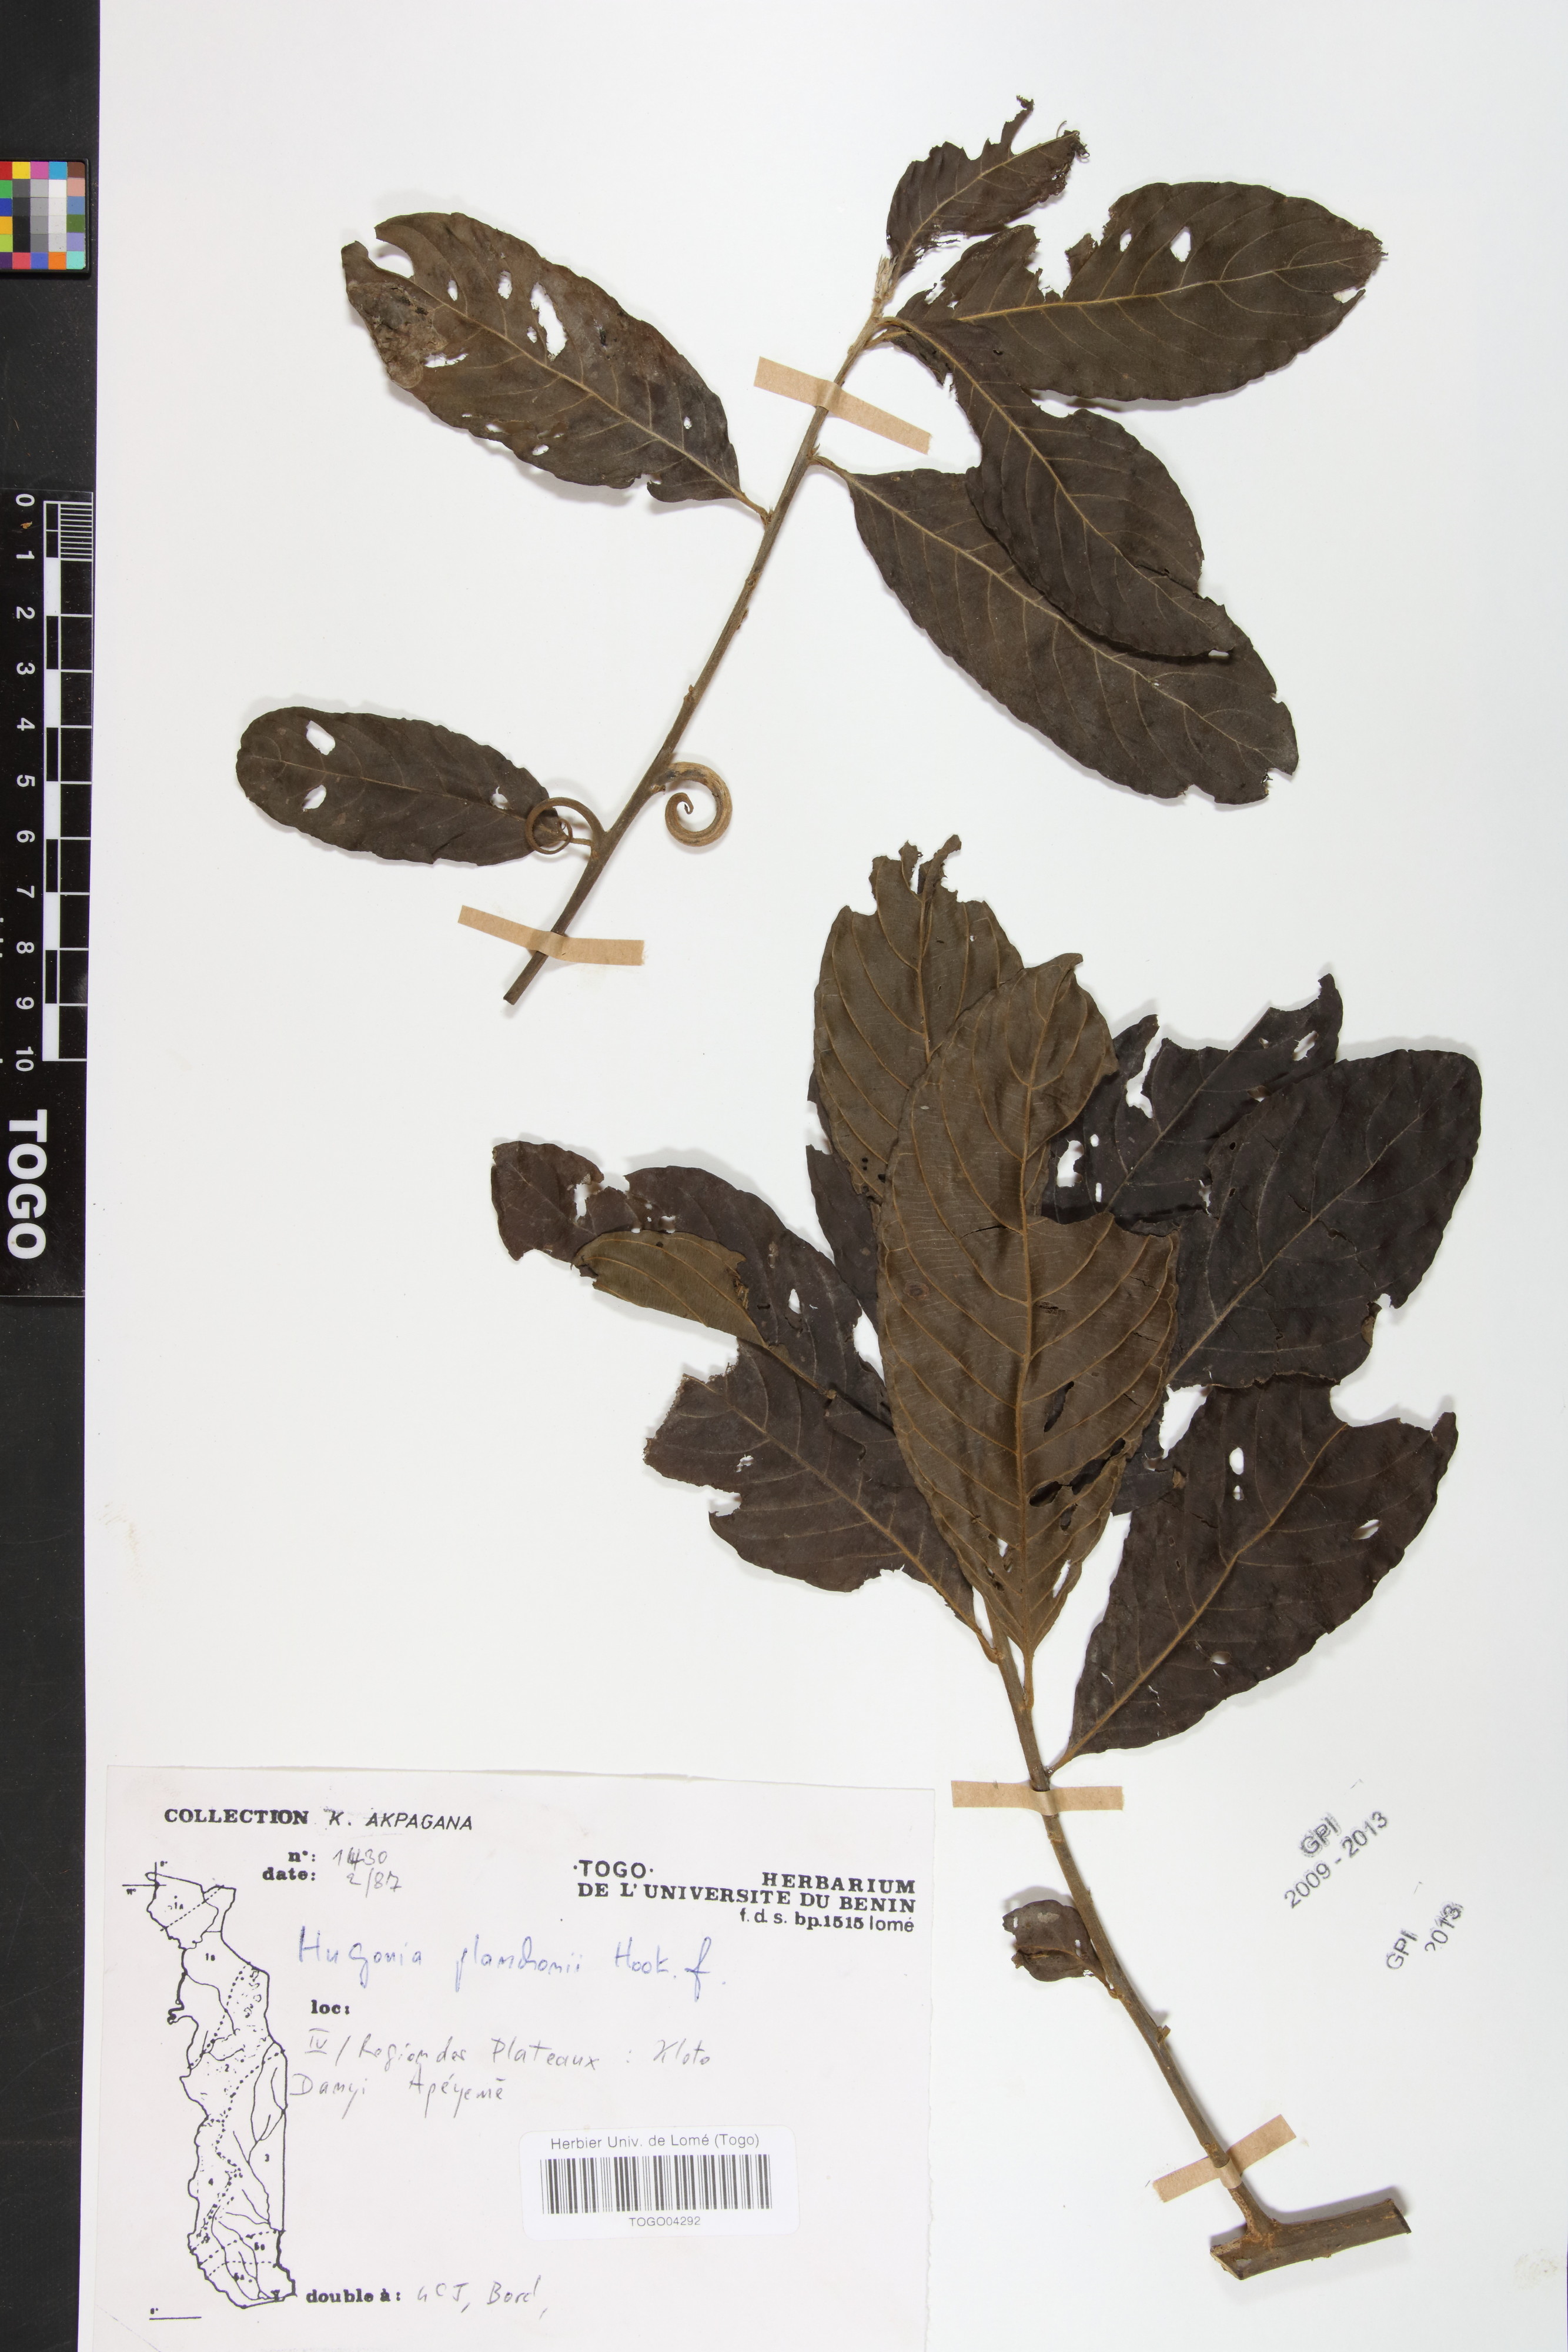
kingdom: Plantae
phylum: Tracheophyta
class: Magnoliopsida
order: Malpighiales
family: Linaceae
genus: Hugonia
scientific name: Hugonia planchonii
